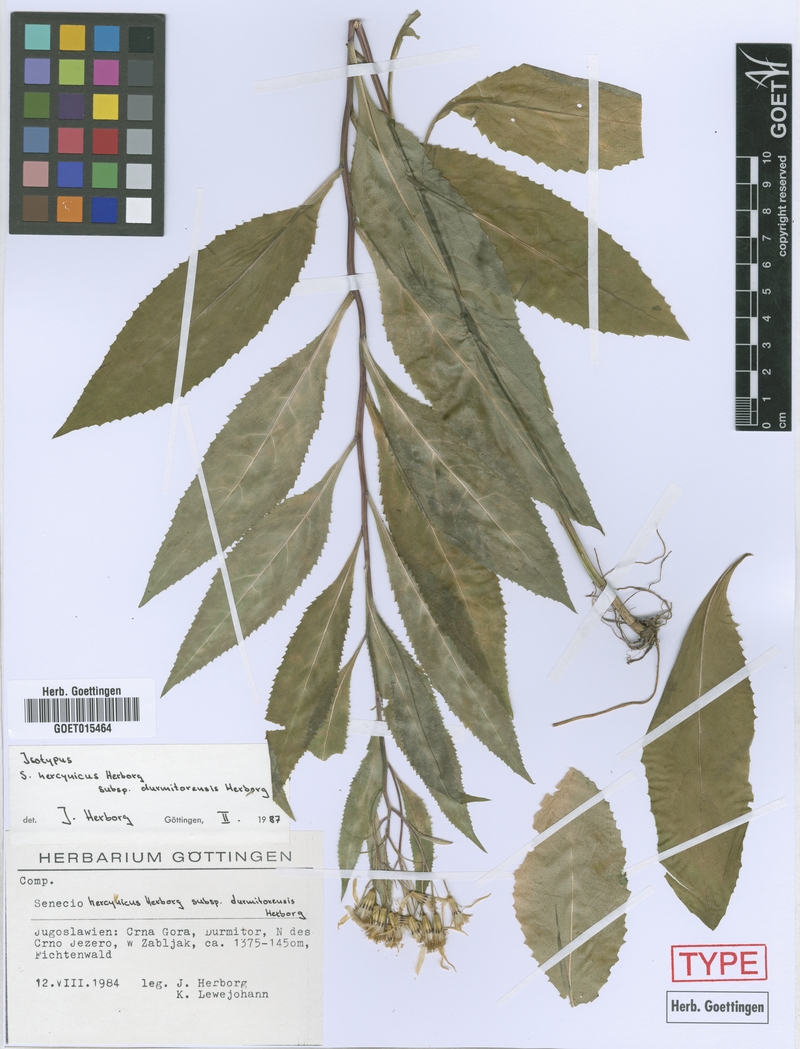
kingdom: Plantae
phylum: Tracheophyta
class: Magnoliopsida
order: Asterales
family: Asteraceae
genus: Senecio
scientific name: Senecio hercynicus
